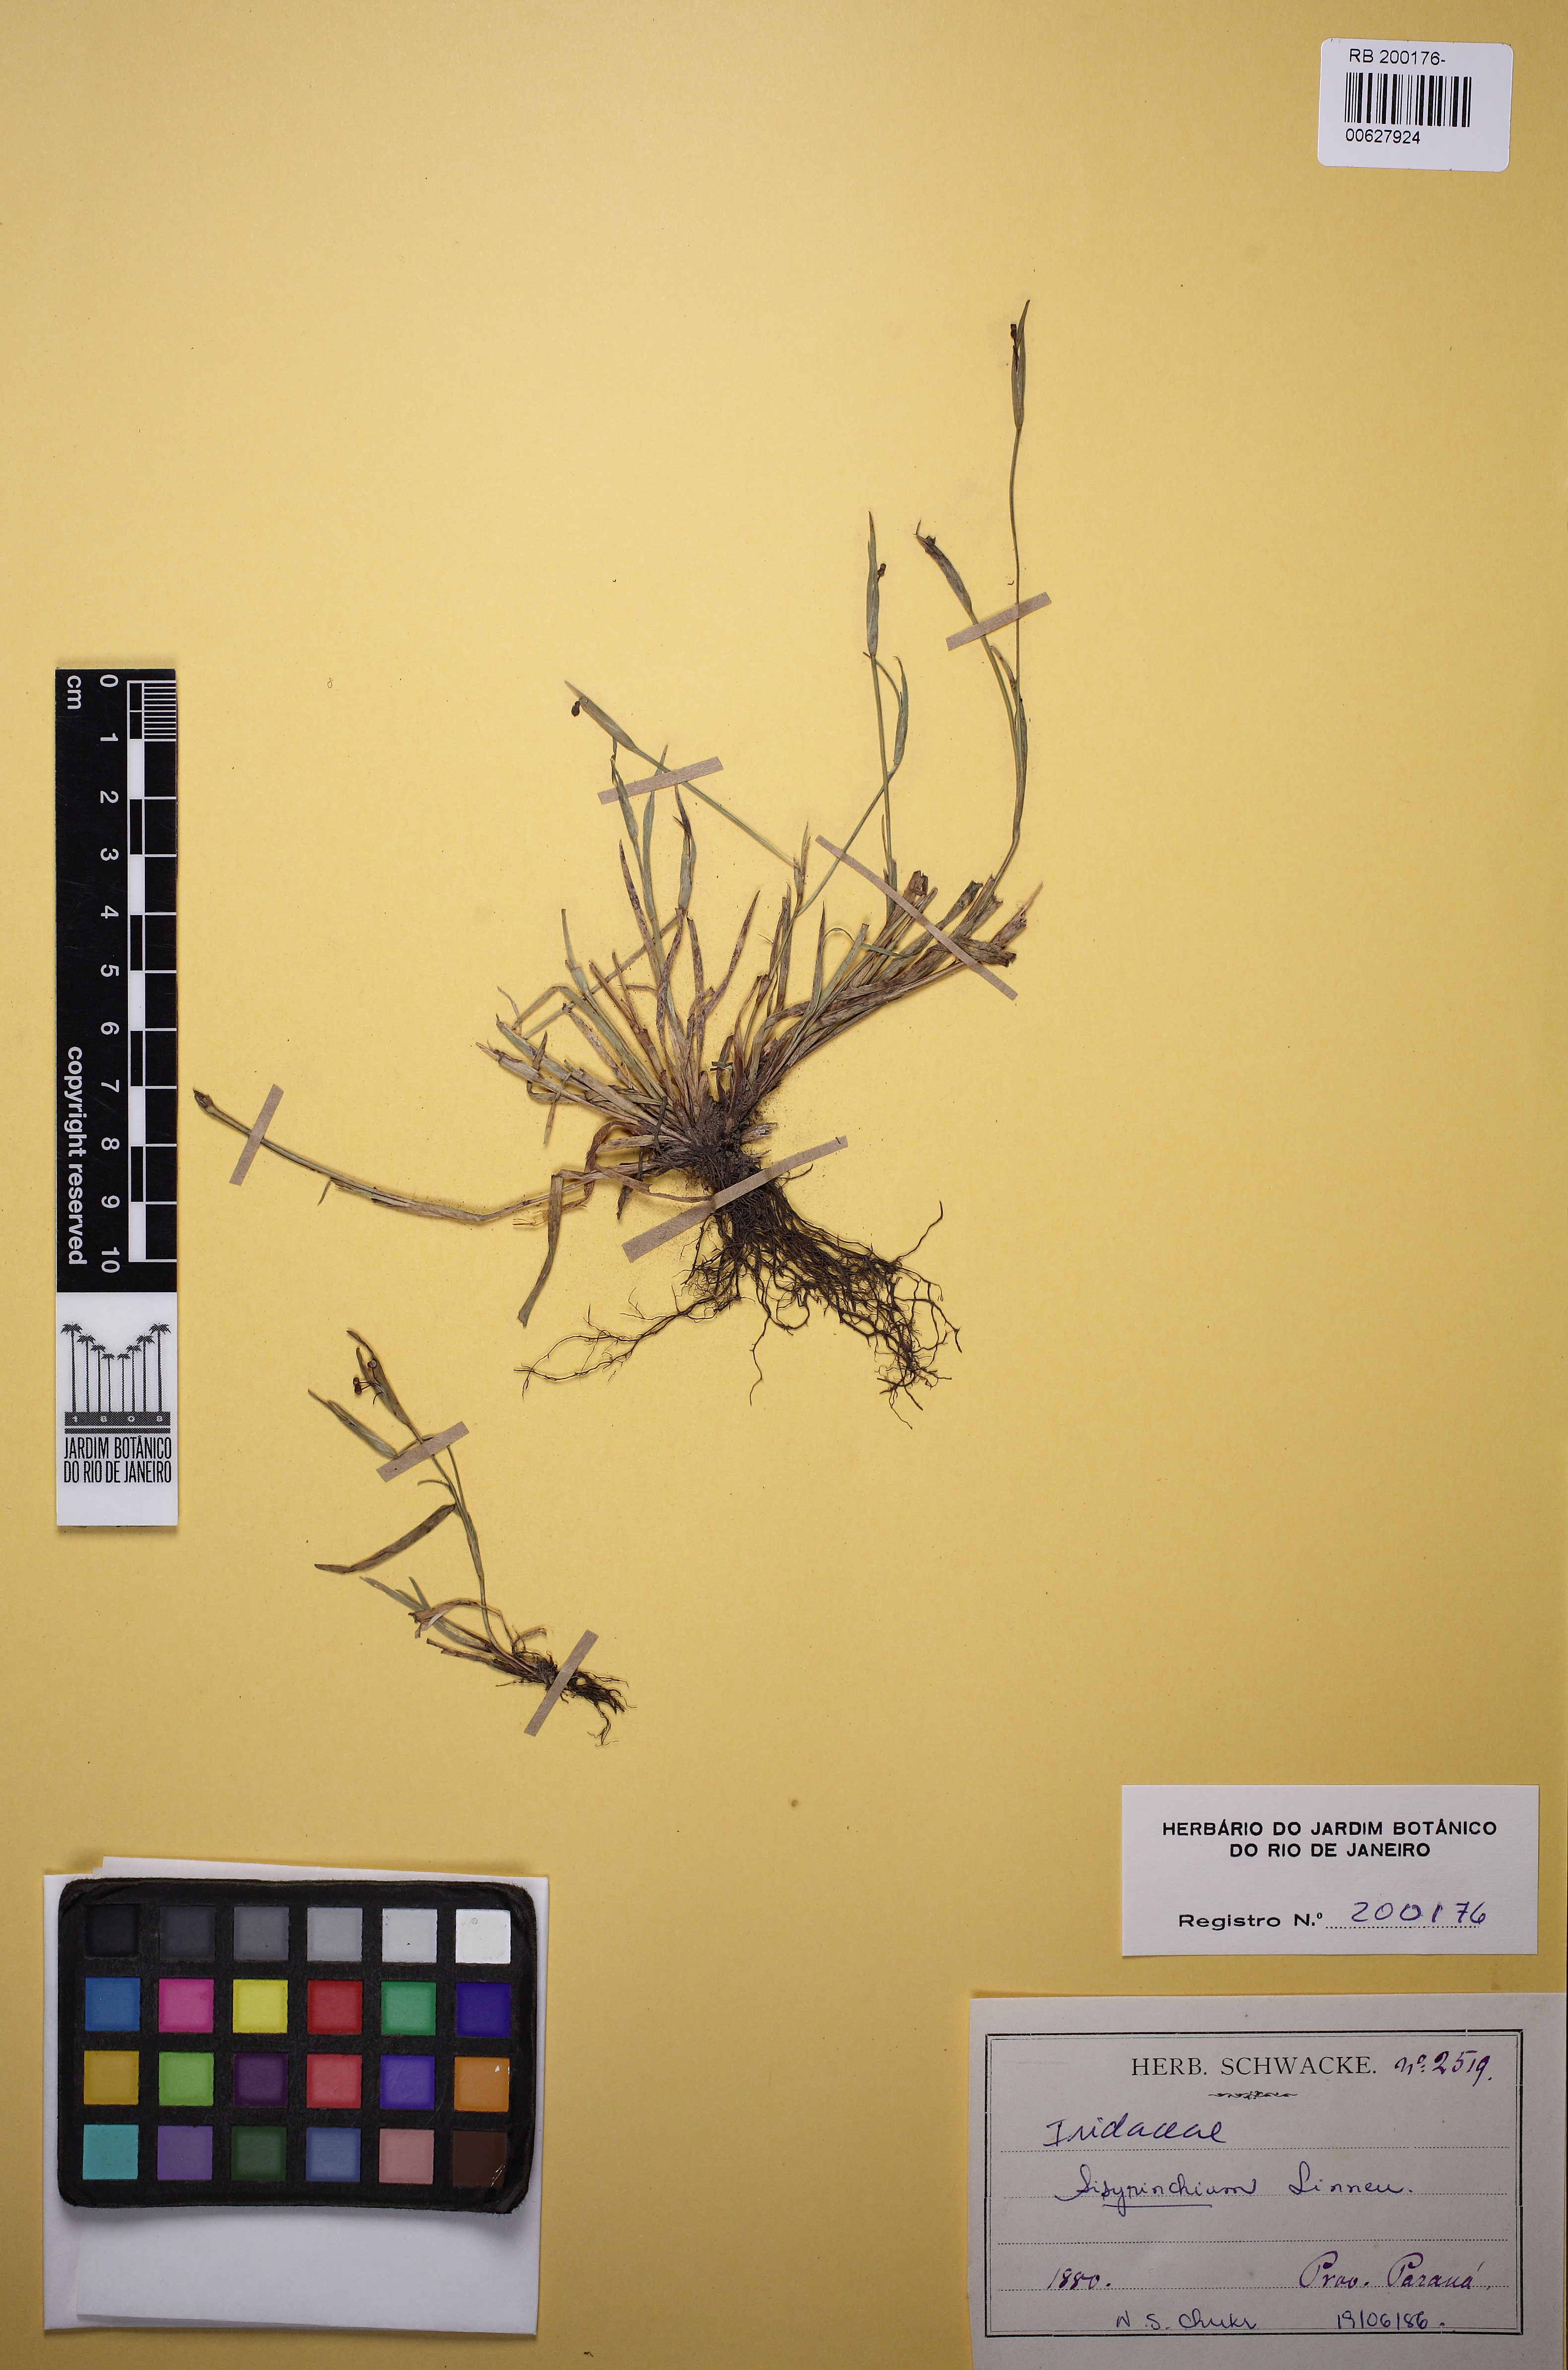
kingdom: Plantae
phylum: Tracheophyta
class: Liliopsida
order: Asparagales
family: Iridaceae
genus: Sisyrinchium
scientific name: Sisyrinchium micranthum
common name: Bermuda pigroot
